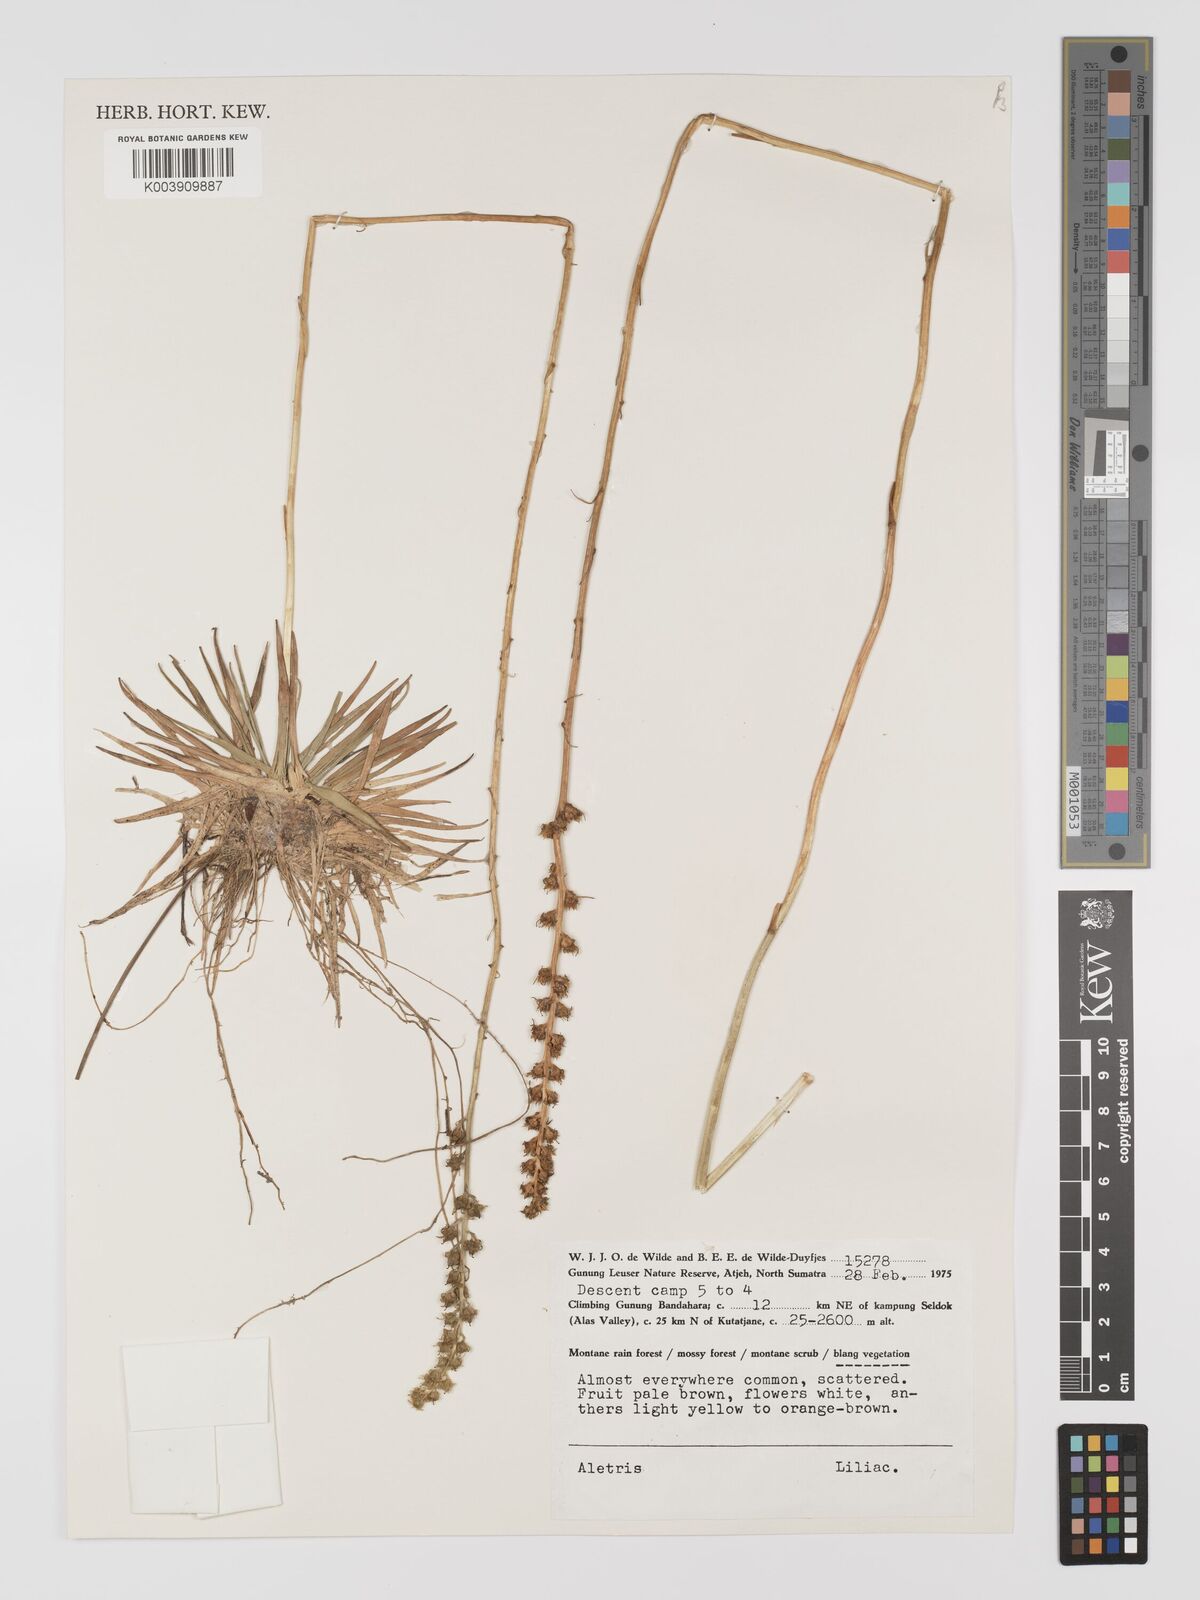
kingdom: Plantae
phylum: Tracheophyta
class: Liliopsida
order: Dioscoreales
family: Nartheciaceae
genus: Aletris
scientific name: Aletris
